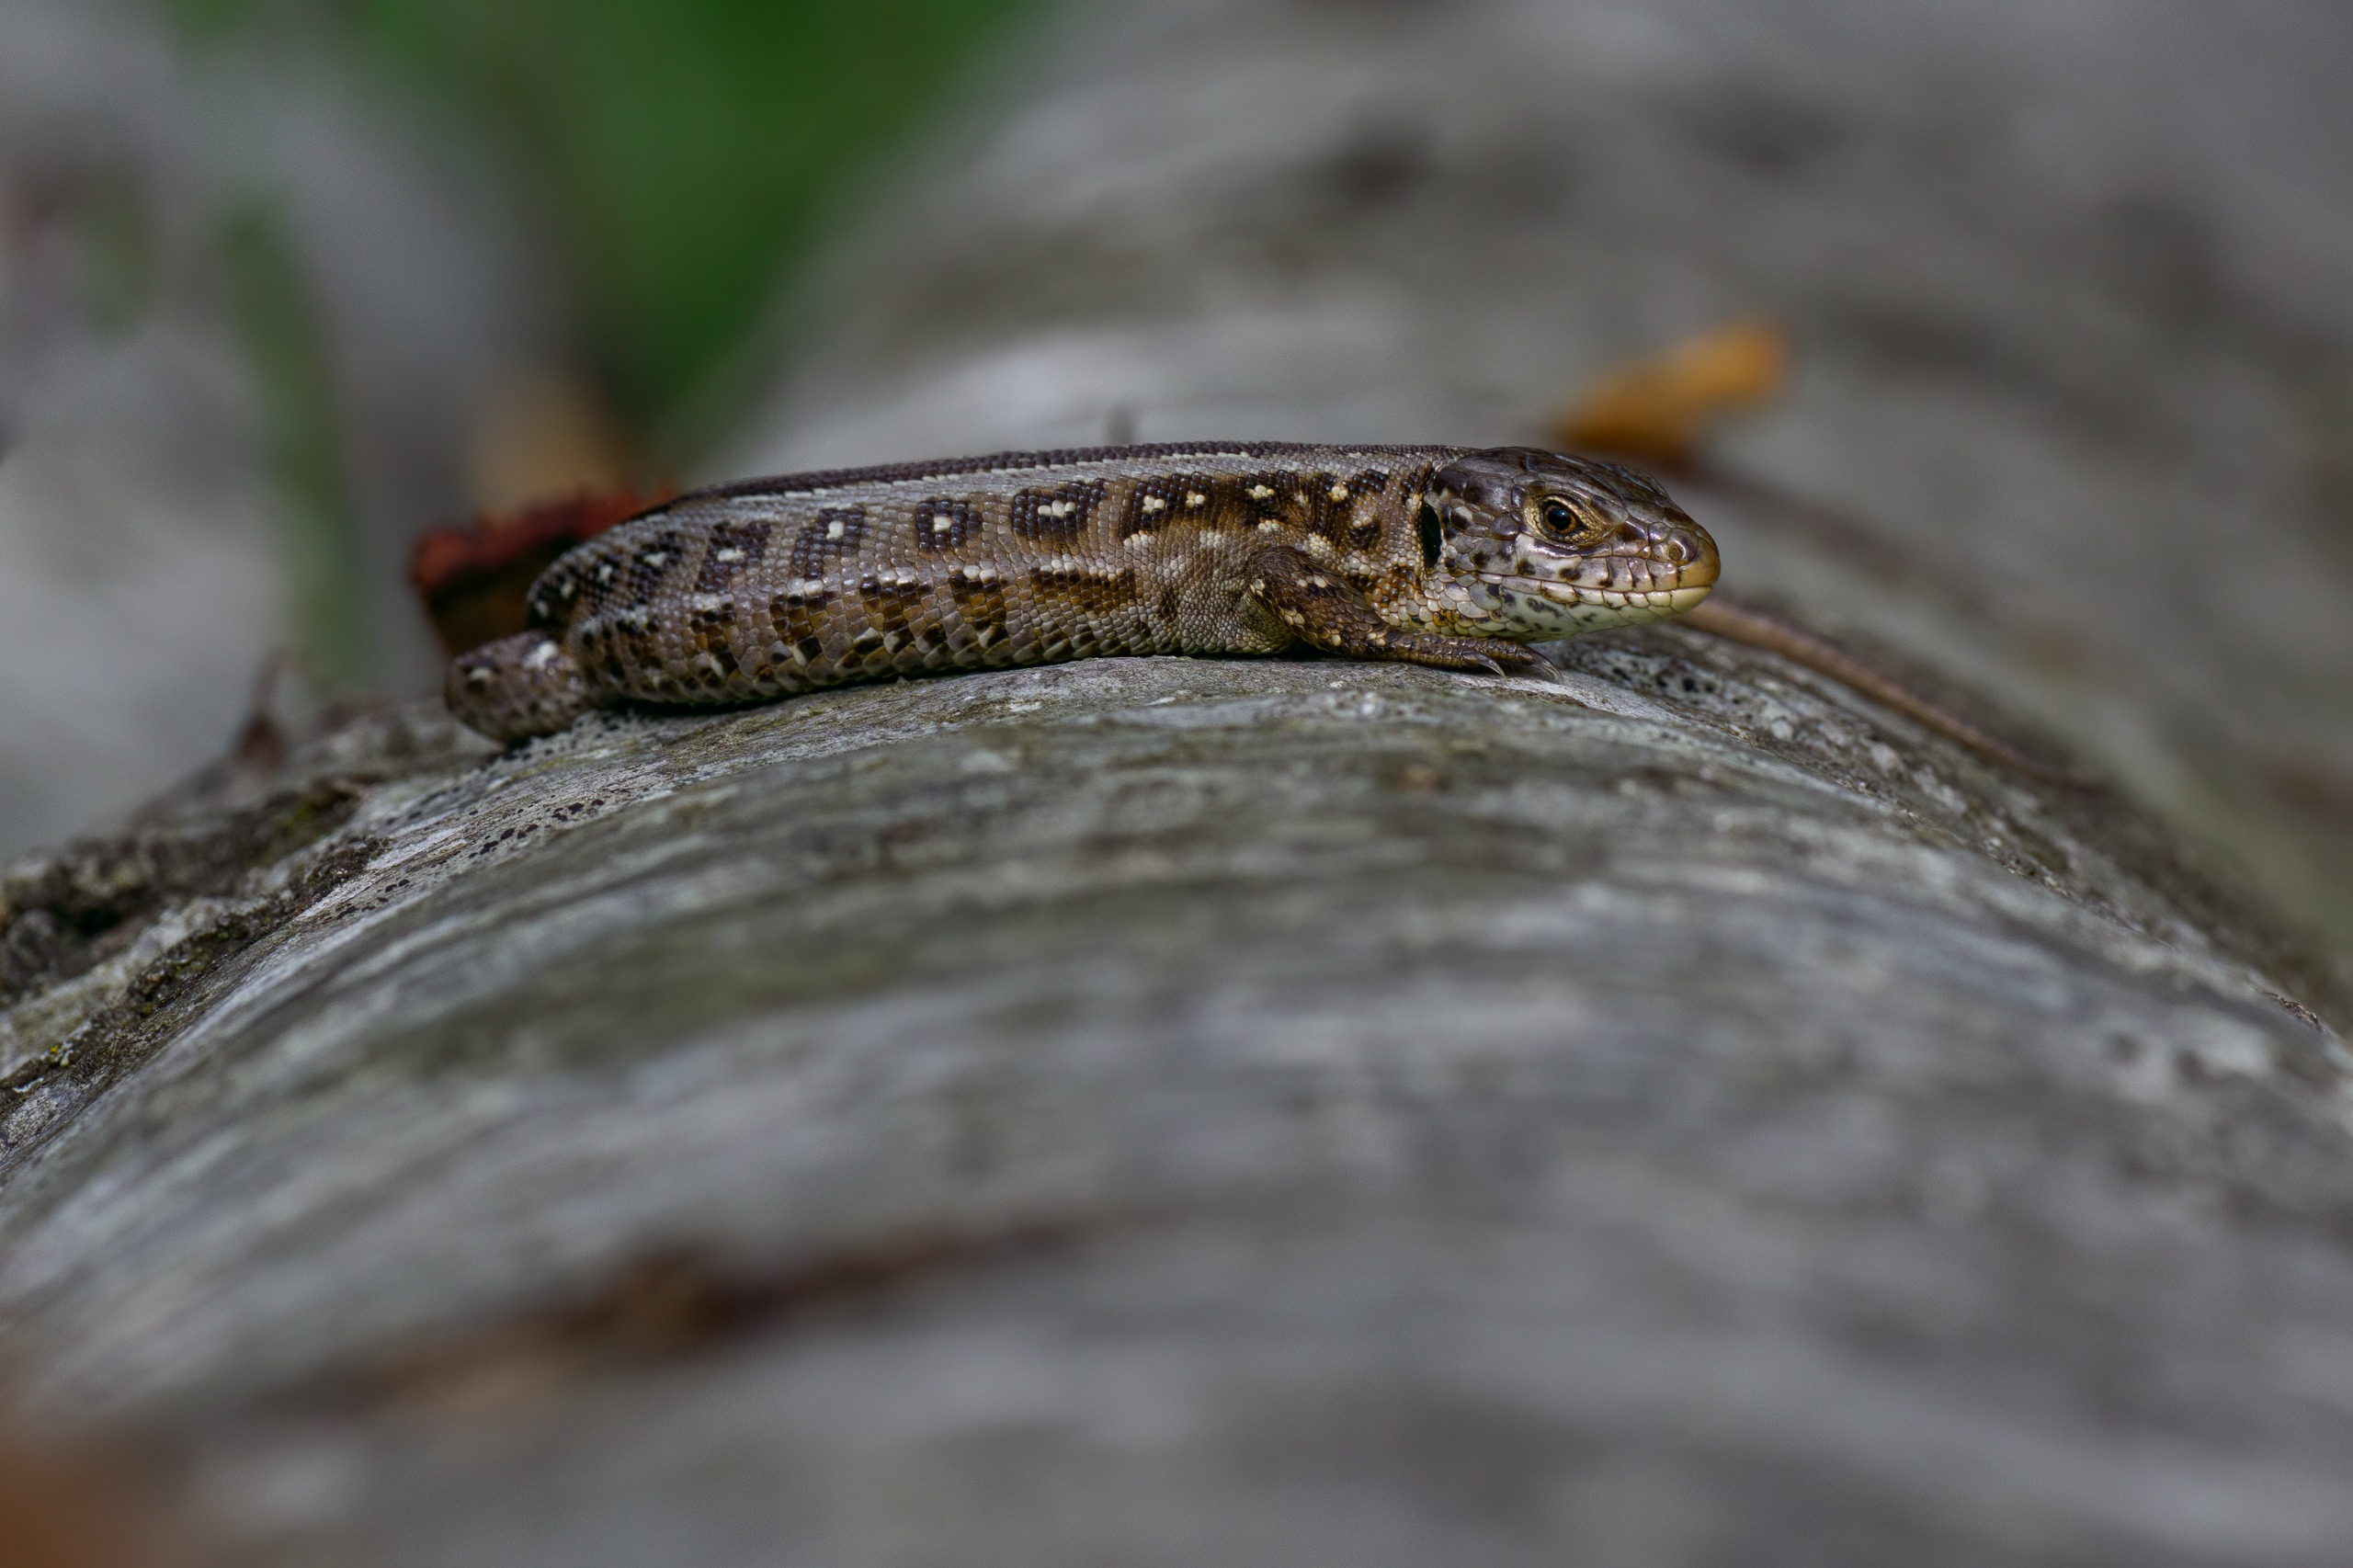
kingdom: Animalia
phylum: Chordata
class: Squamata
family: Lacertidae
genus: Lacerta
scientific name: Lacerta agilis
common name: Markfirben
